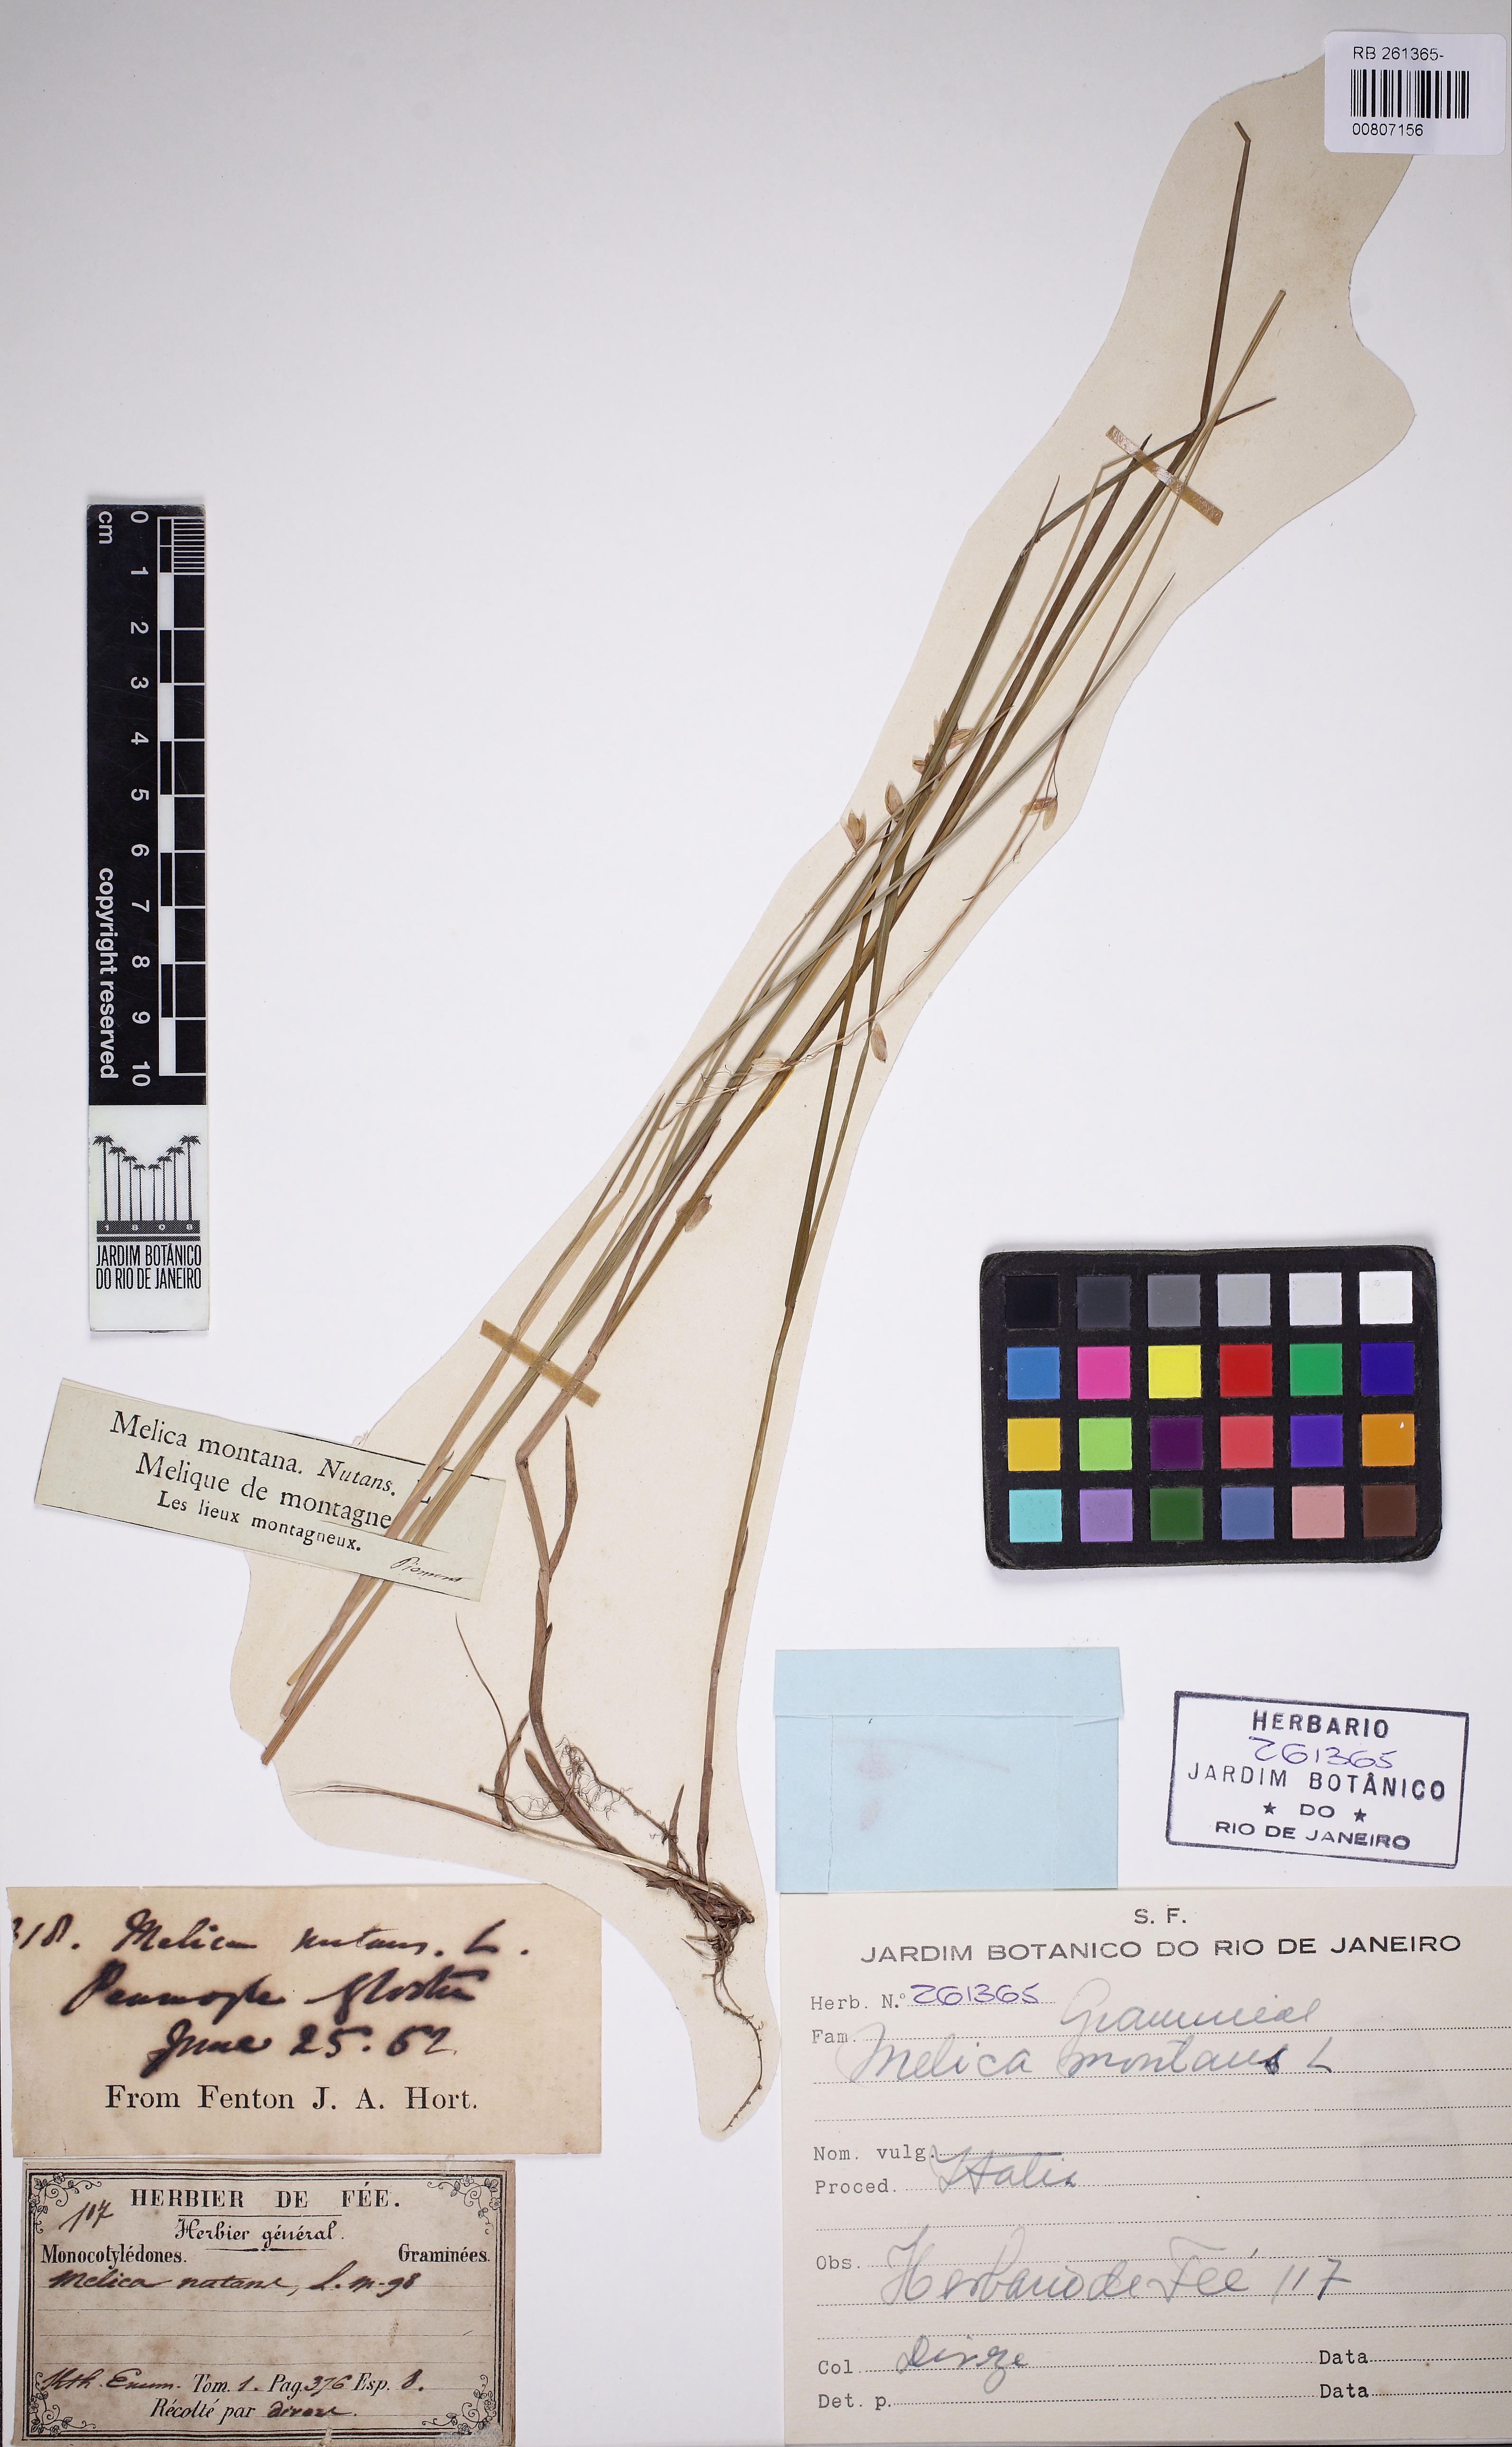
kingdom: Plantae
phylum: Tracheophyta
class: Liliopsida
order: Poales
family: Poaceae
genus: Melica
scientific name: Melica nutans
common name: Mountain melick
